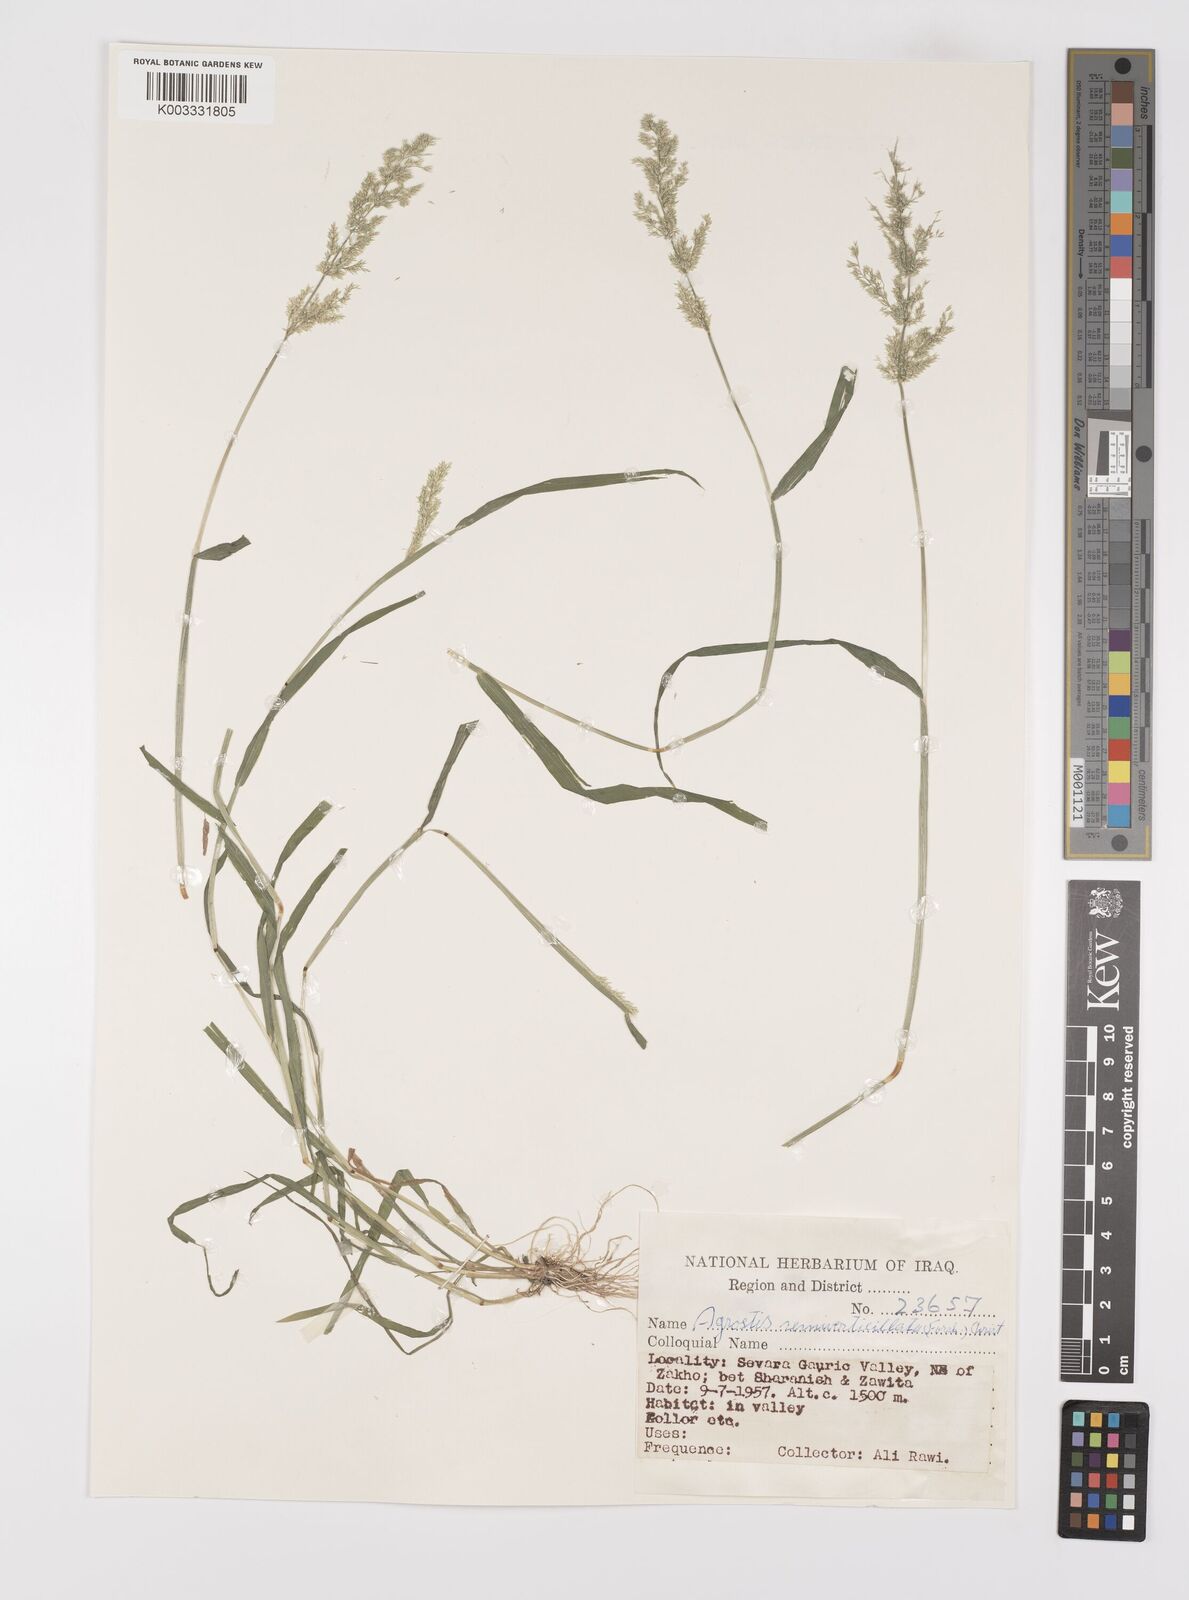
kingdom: Plantae
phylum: Tracheophyta
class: Liliopsida
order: Poales
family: Poaceae
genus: Polypogon
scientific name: Polypogon viridis
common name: Water bent
